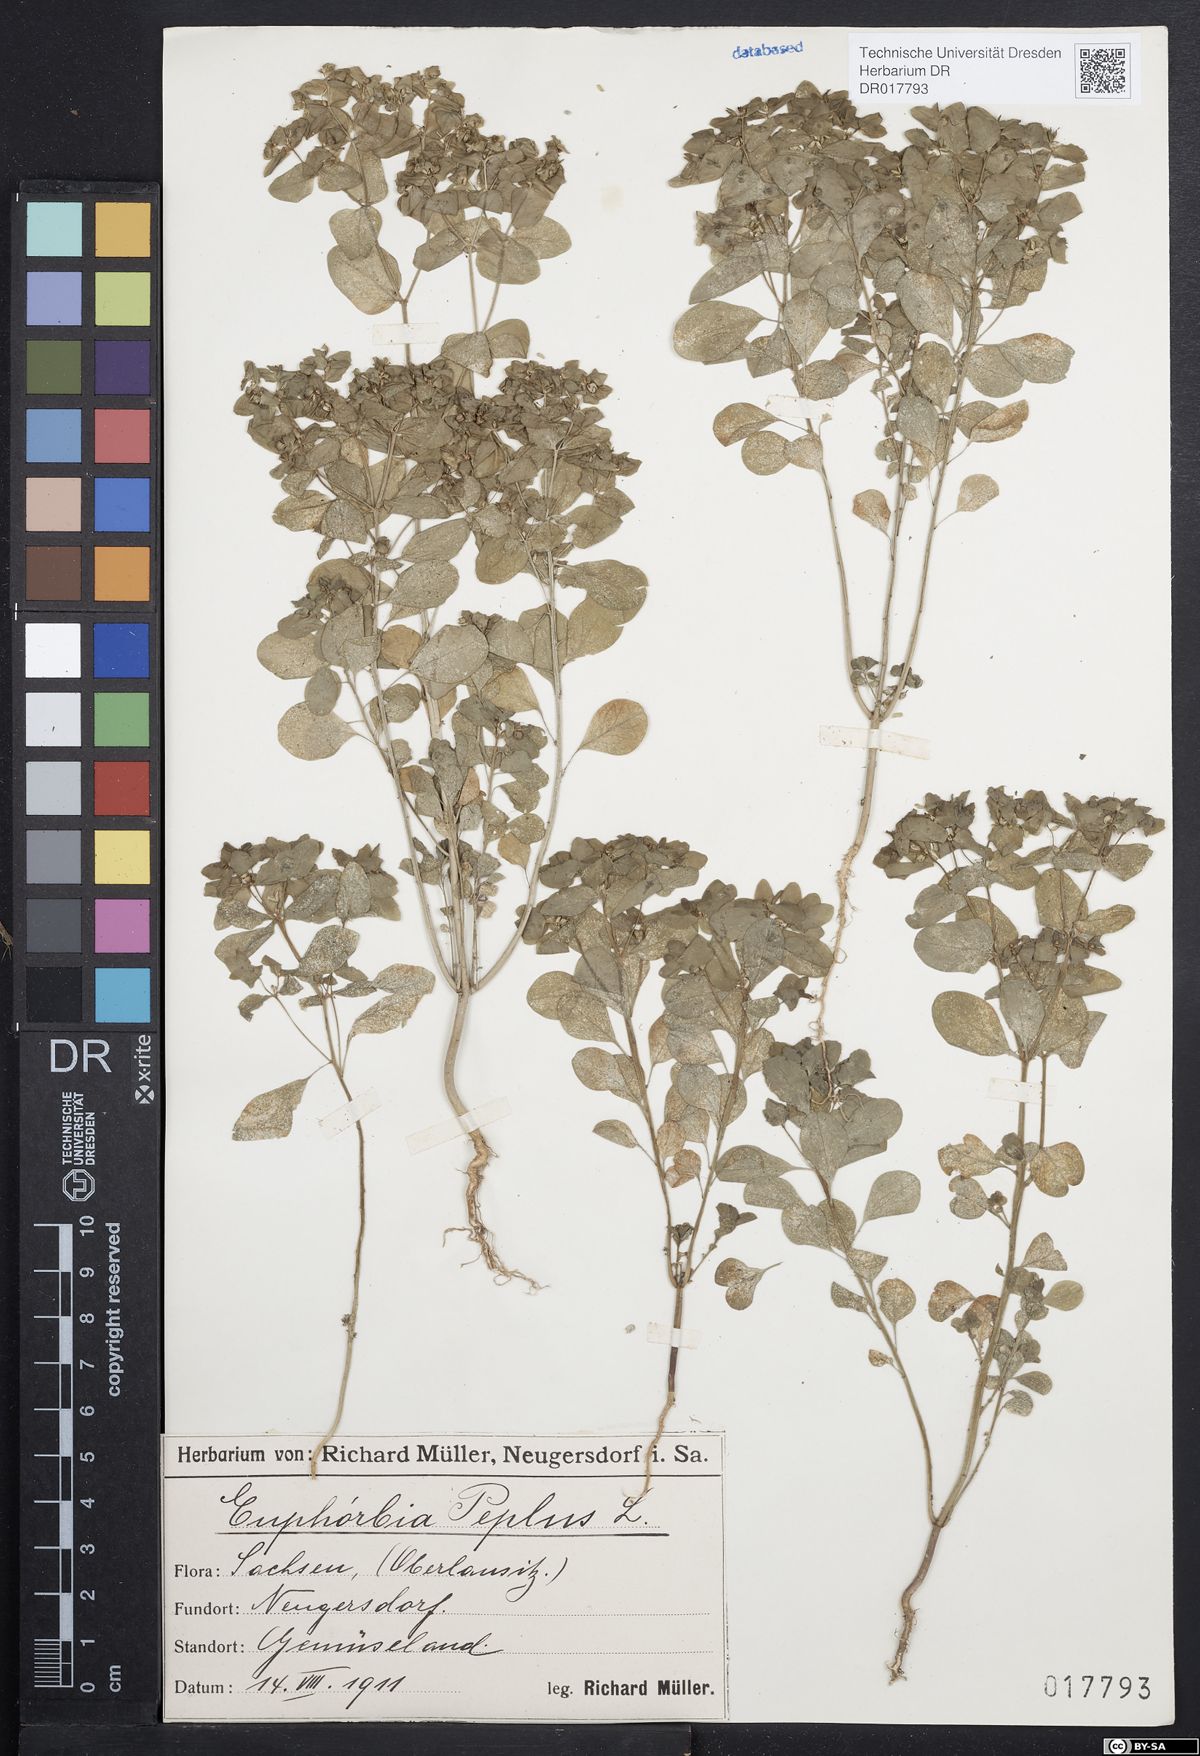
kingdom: Plantae
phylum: Tracheophyta
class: Magnoliopsida
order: Malpighiales
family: Euphorbiaceae
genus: Euphorbia
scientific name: Euphorbia peplus
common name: Petty spurge
